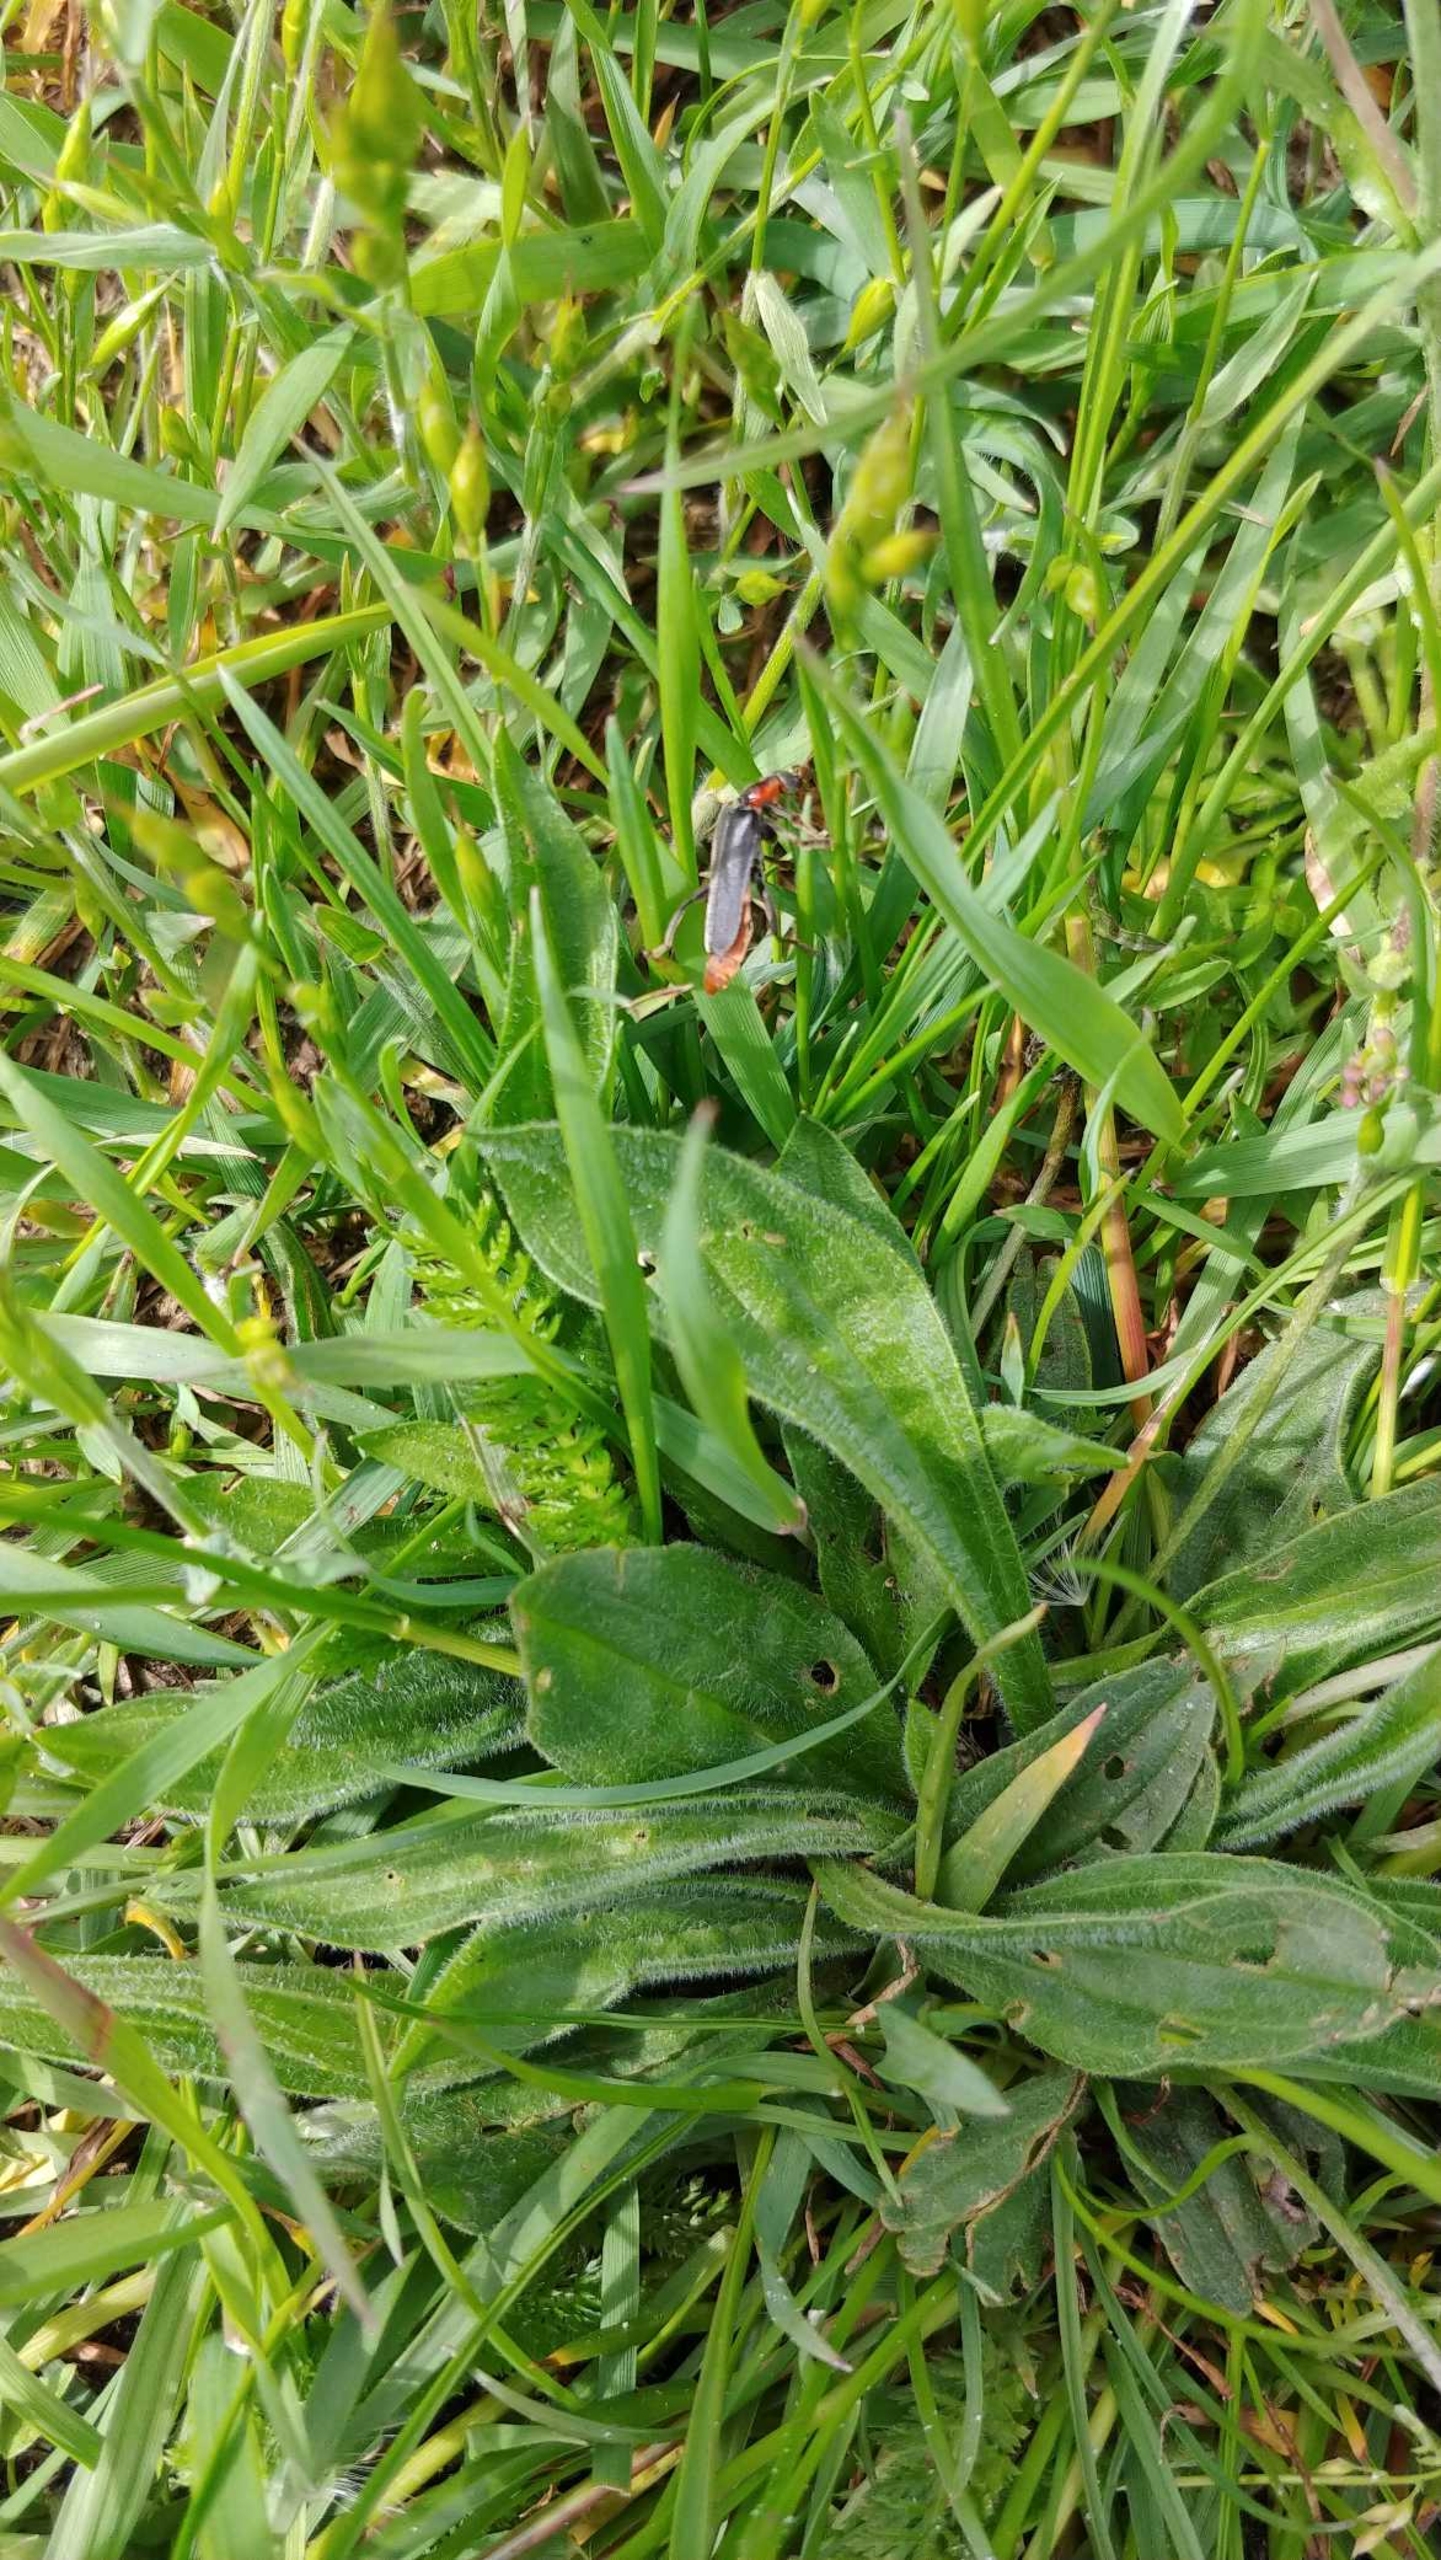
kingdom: Animalia
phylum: Arthropoda
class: Insecta
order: Coleoptera
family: Cantharidae
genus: Cantharis
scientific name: Cantharis fusca
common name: Stor blødvinge
